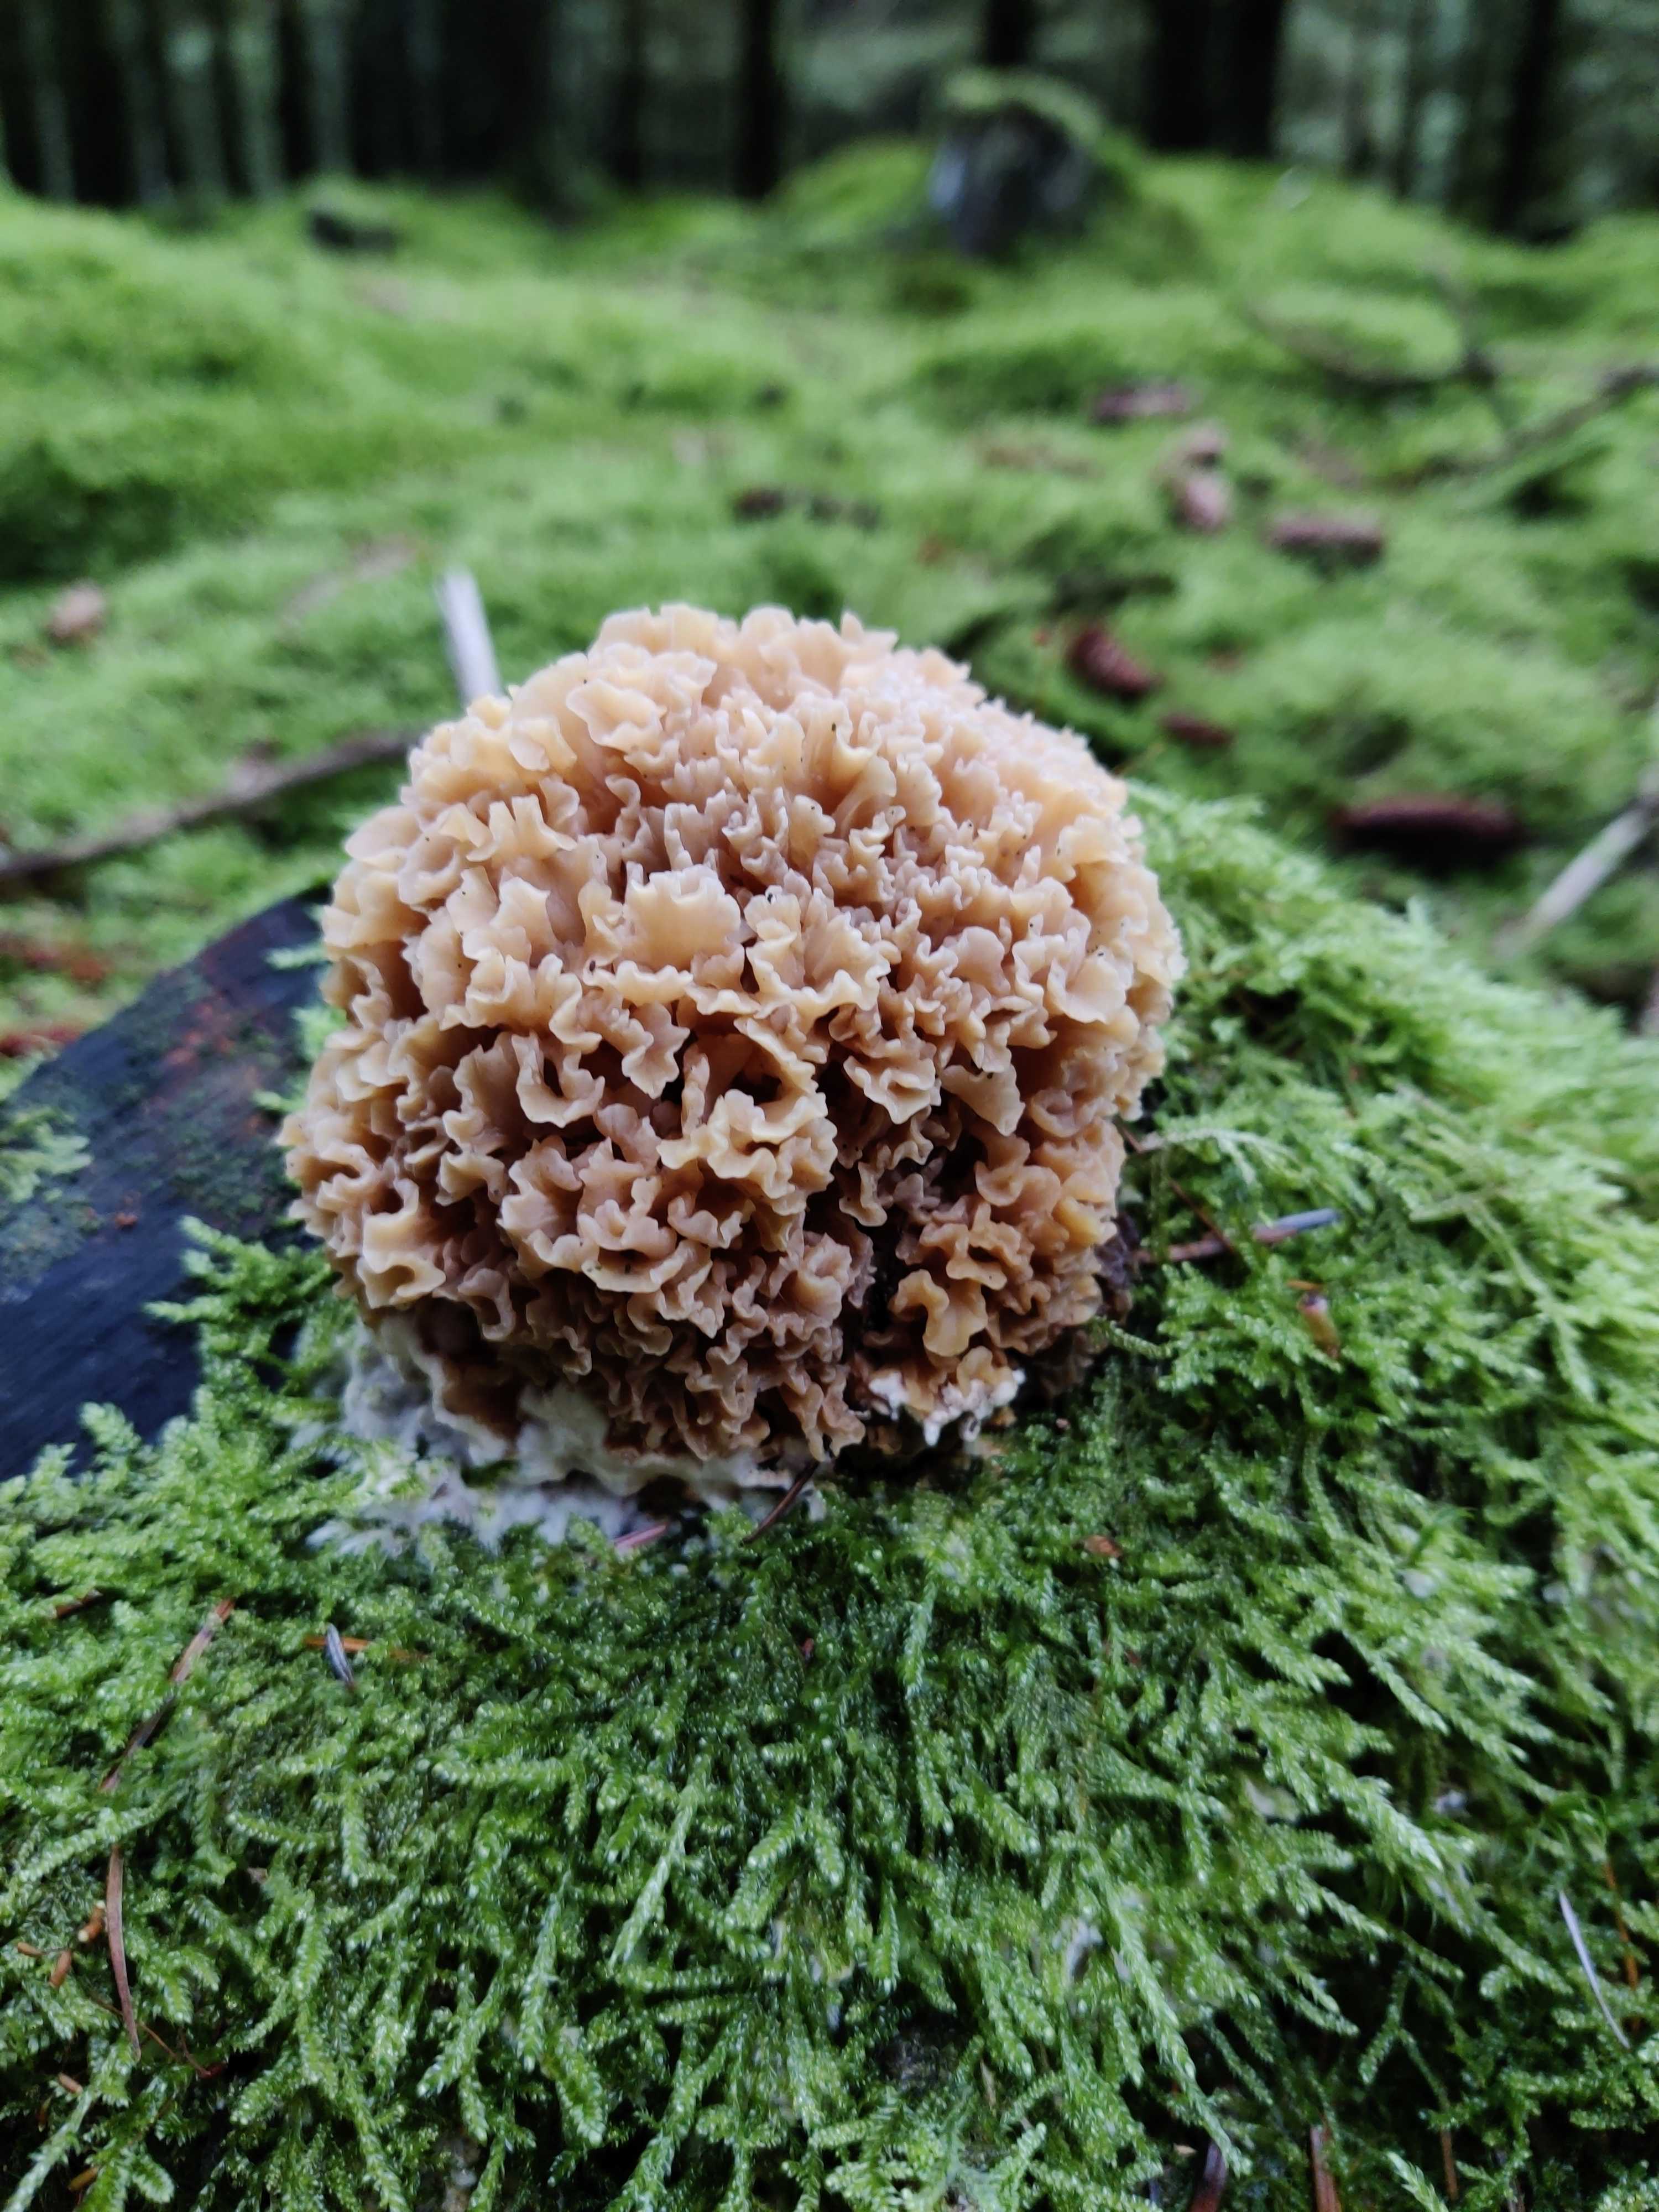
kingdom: Fungi
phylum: Basidiomycota
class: Agaricomycetes
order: Polyporales
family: Sparassidaceae
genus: Sparassis
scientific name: Sparassis crispa
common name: kruset blomkålssvamp
